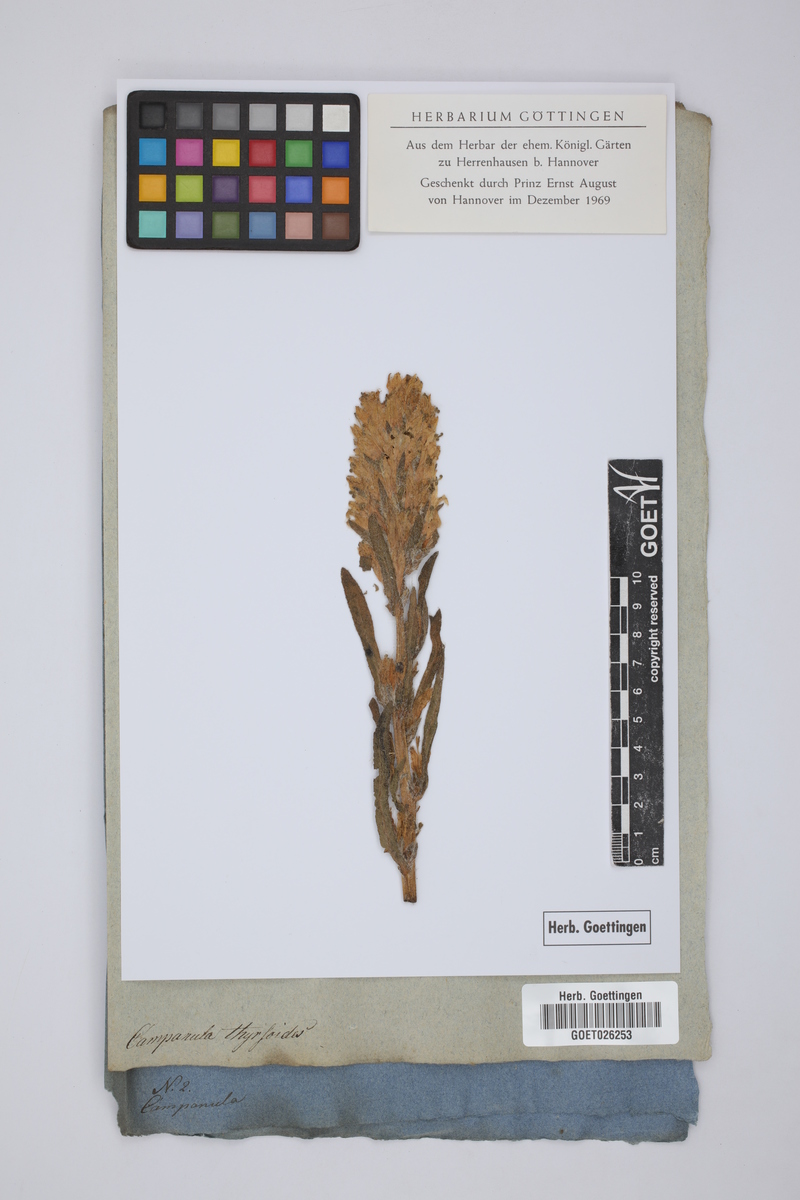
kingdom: Plantae
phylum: Tracheophyta
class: Magnoliopsida
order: Asterales
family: Campanulaceae
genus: Campanula
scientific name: Campanula thyrsoides
